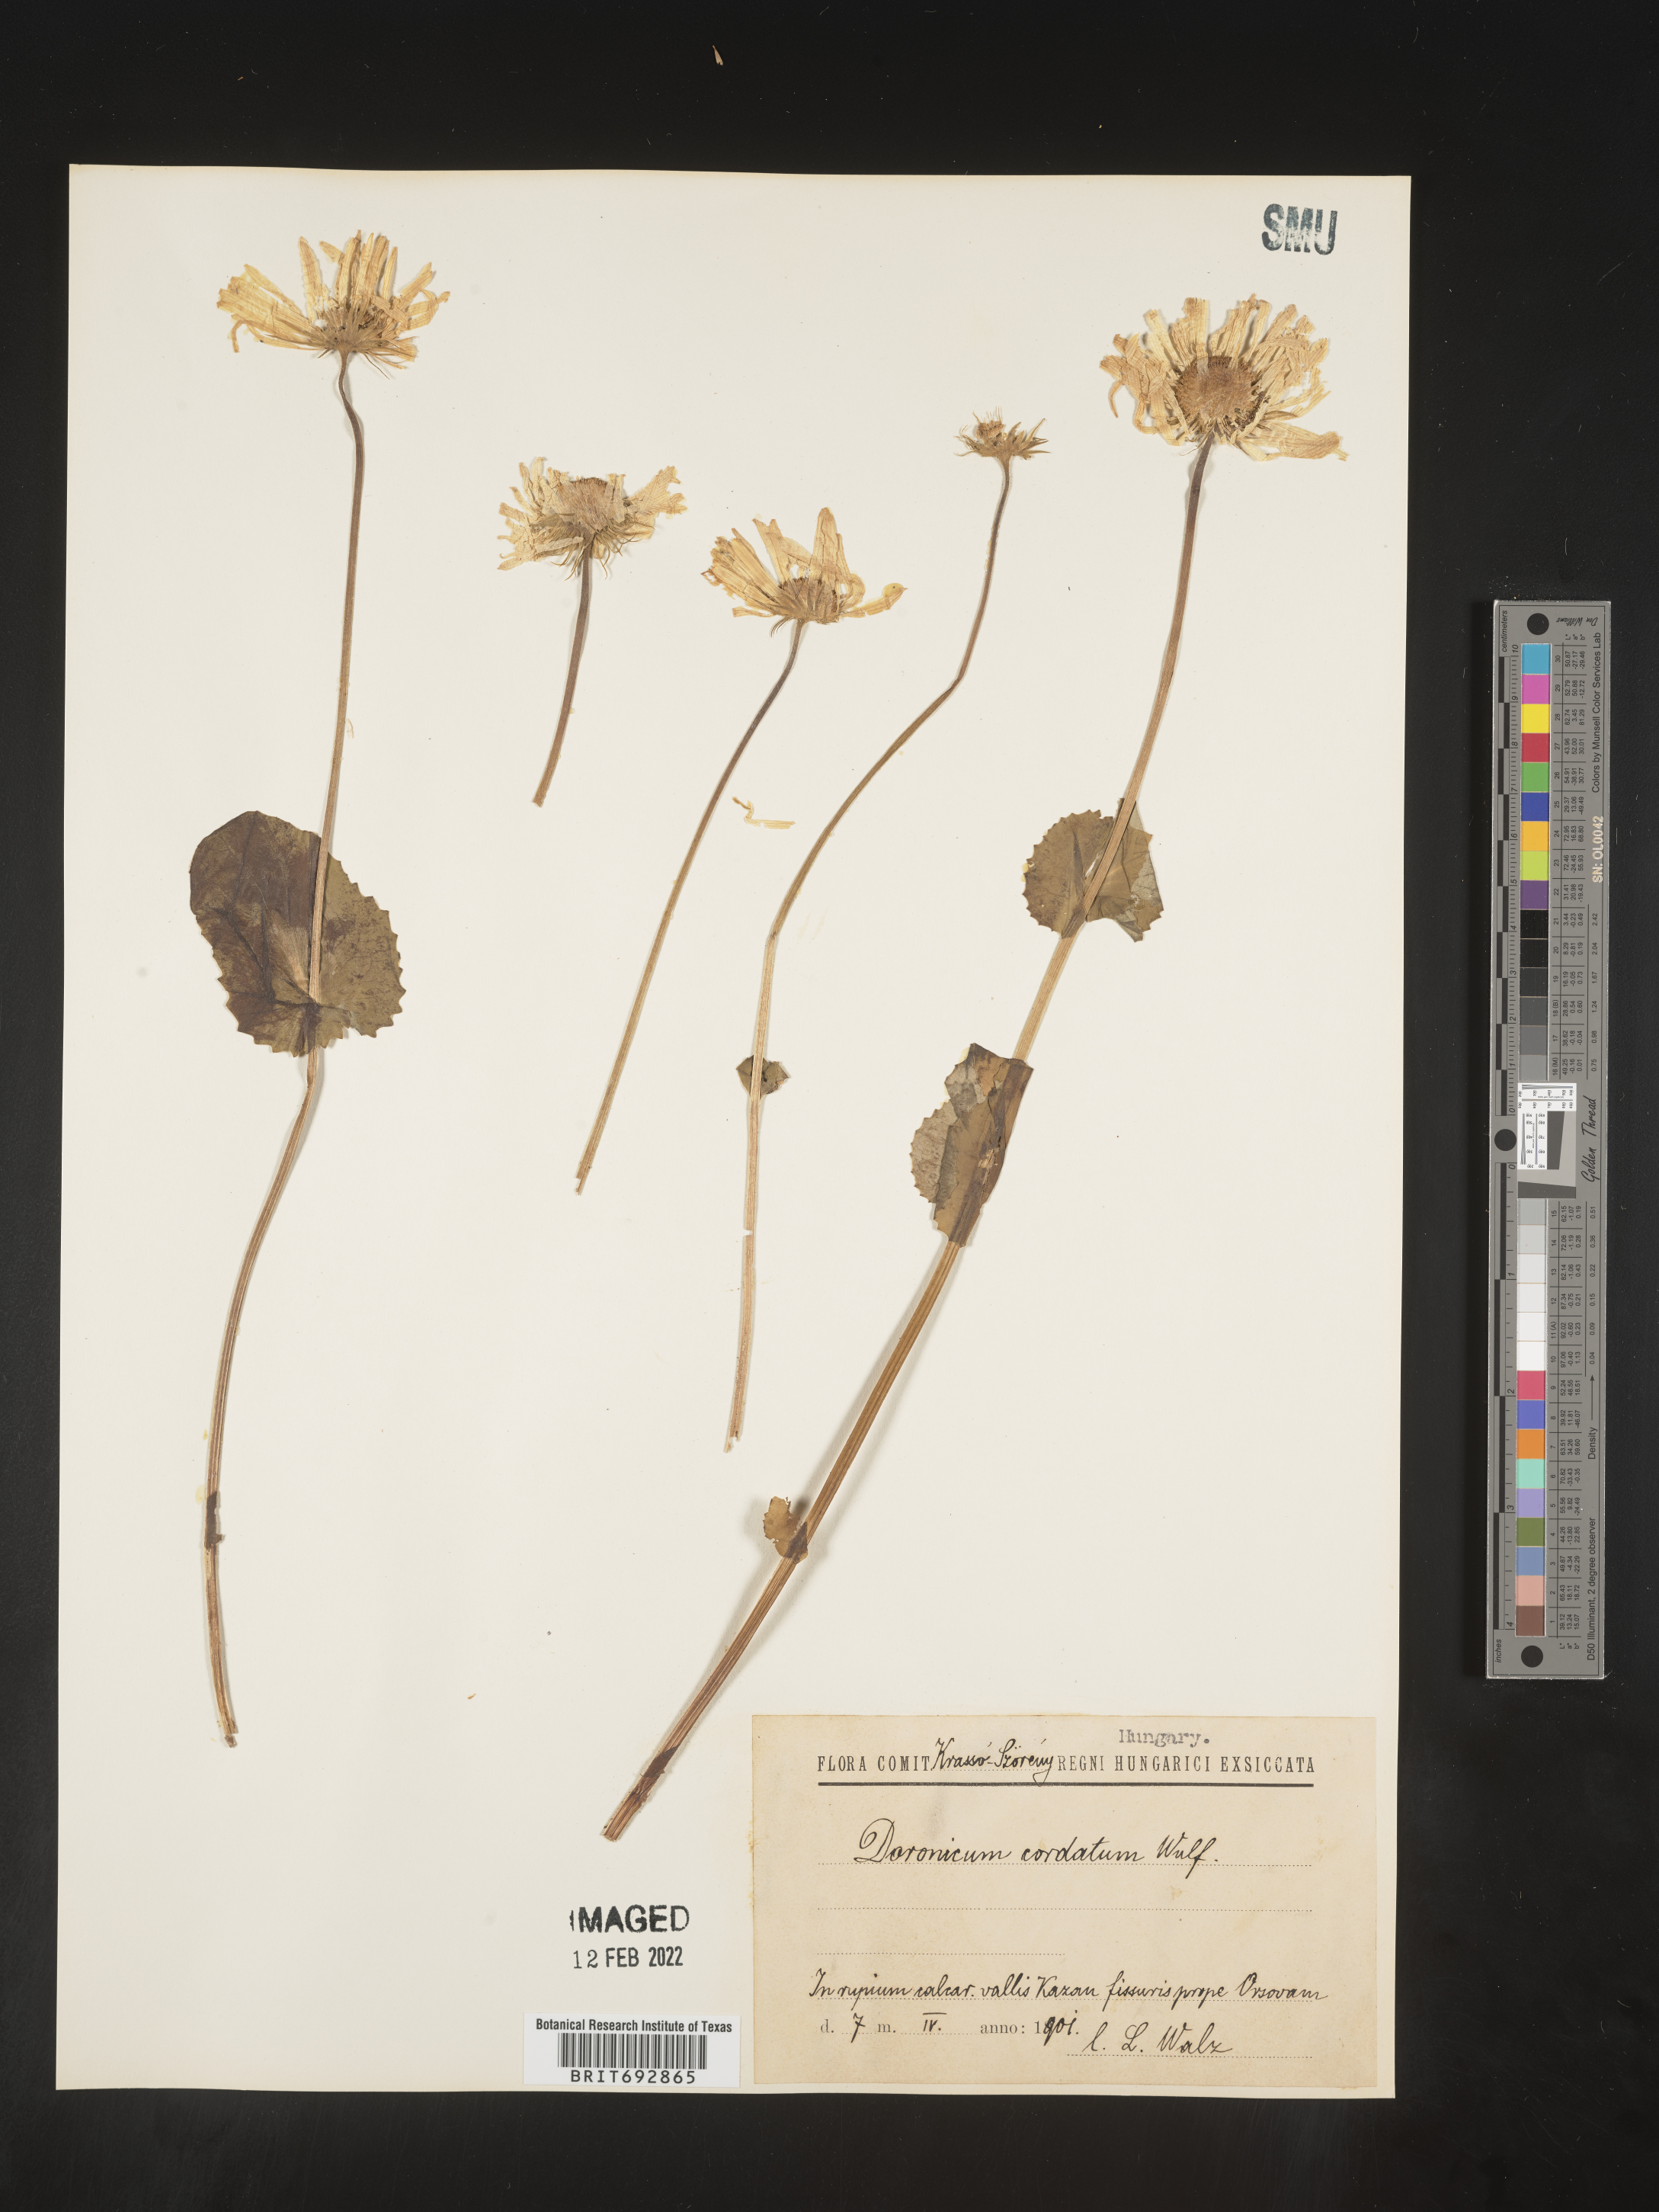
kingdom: Plantae
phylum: Tracheophyta
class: Magnoliopsida
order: Asterales
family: Asteraceae
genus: Doronicum
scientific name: Doronicum
